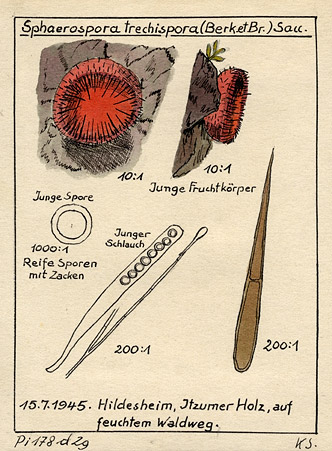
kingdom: Fungi
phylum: Ascomycota
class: Pezizomycetes
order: Pezizales
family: Pyronemataceae
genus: Scutellinia
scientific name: Scutellinia trechispora
